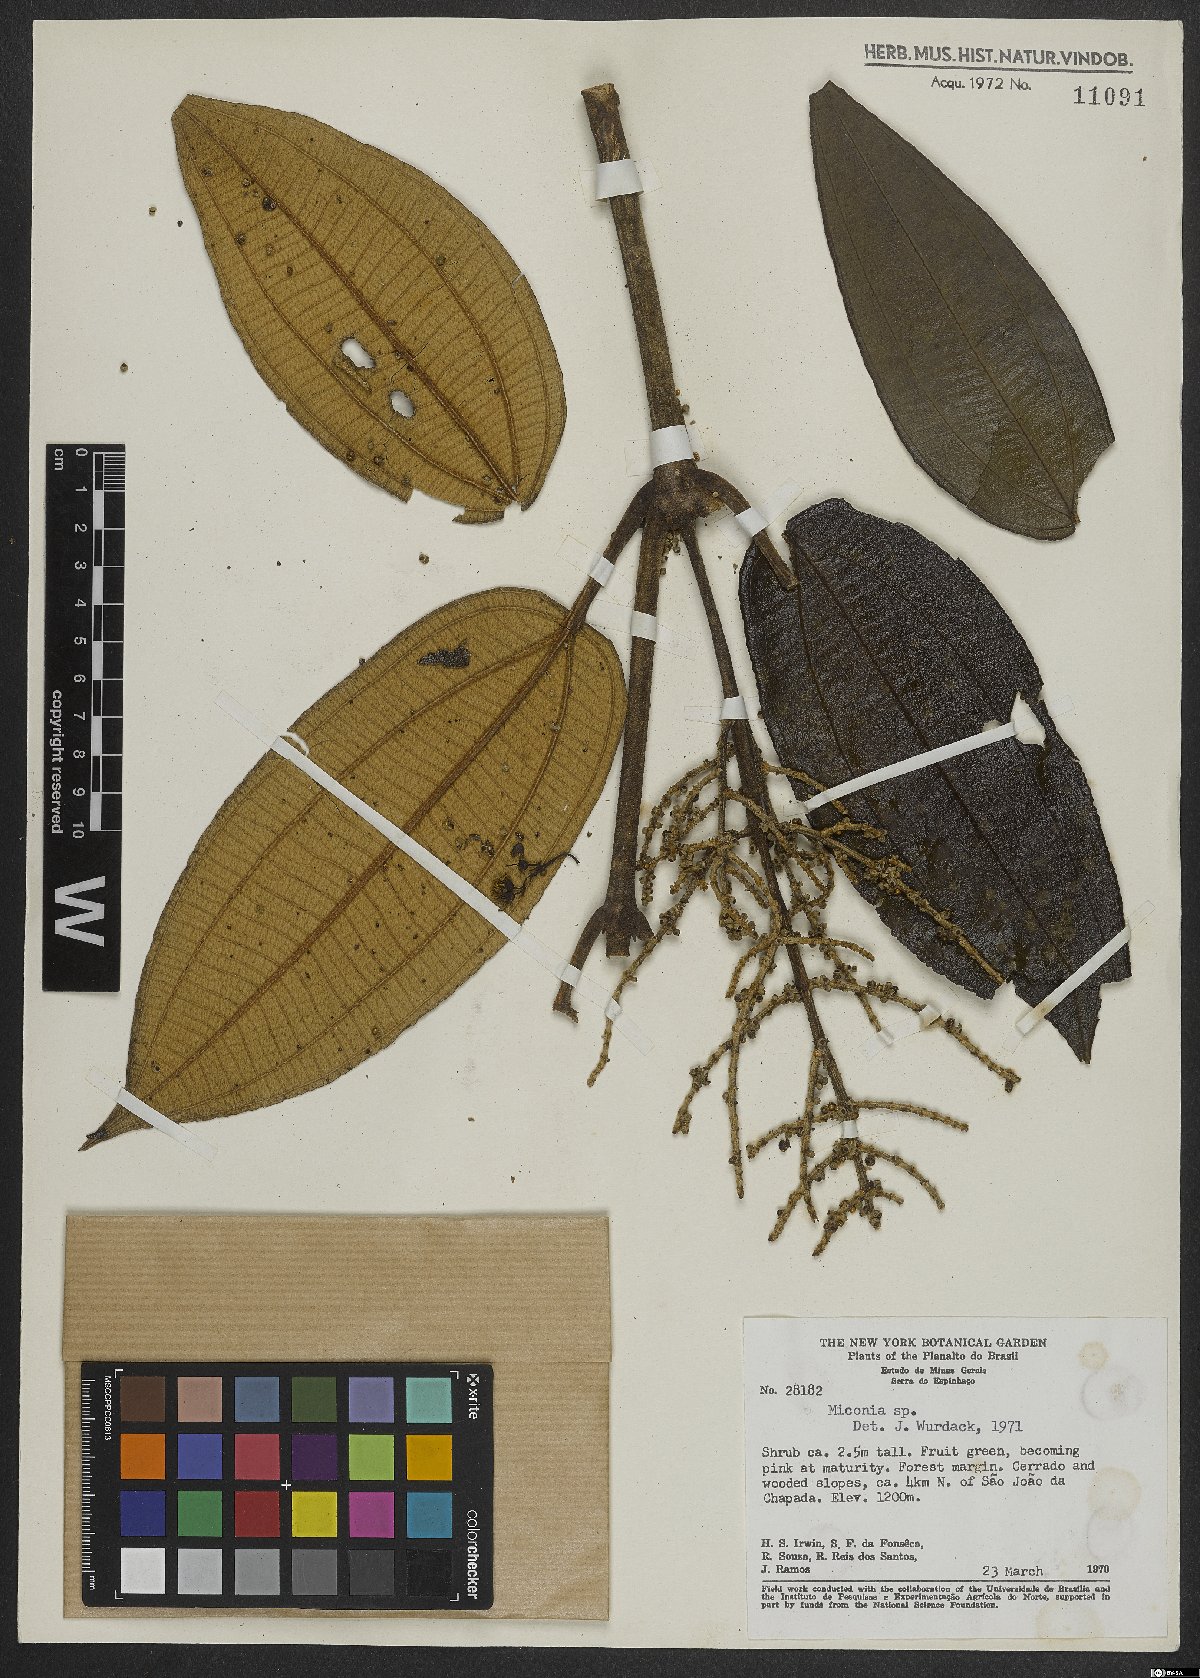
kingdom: Plantae
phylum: Tracheophyta
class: Magnoliopsida
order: Myrtales
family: Melastomataceae
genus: Miconia
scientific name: Miconia
